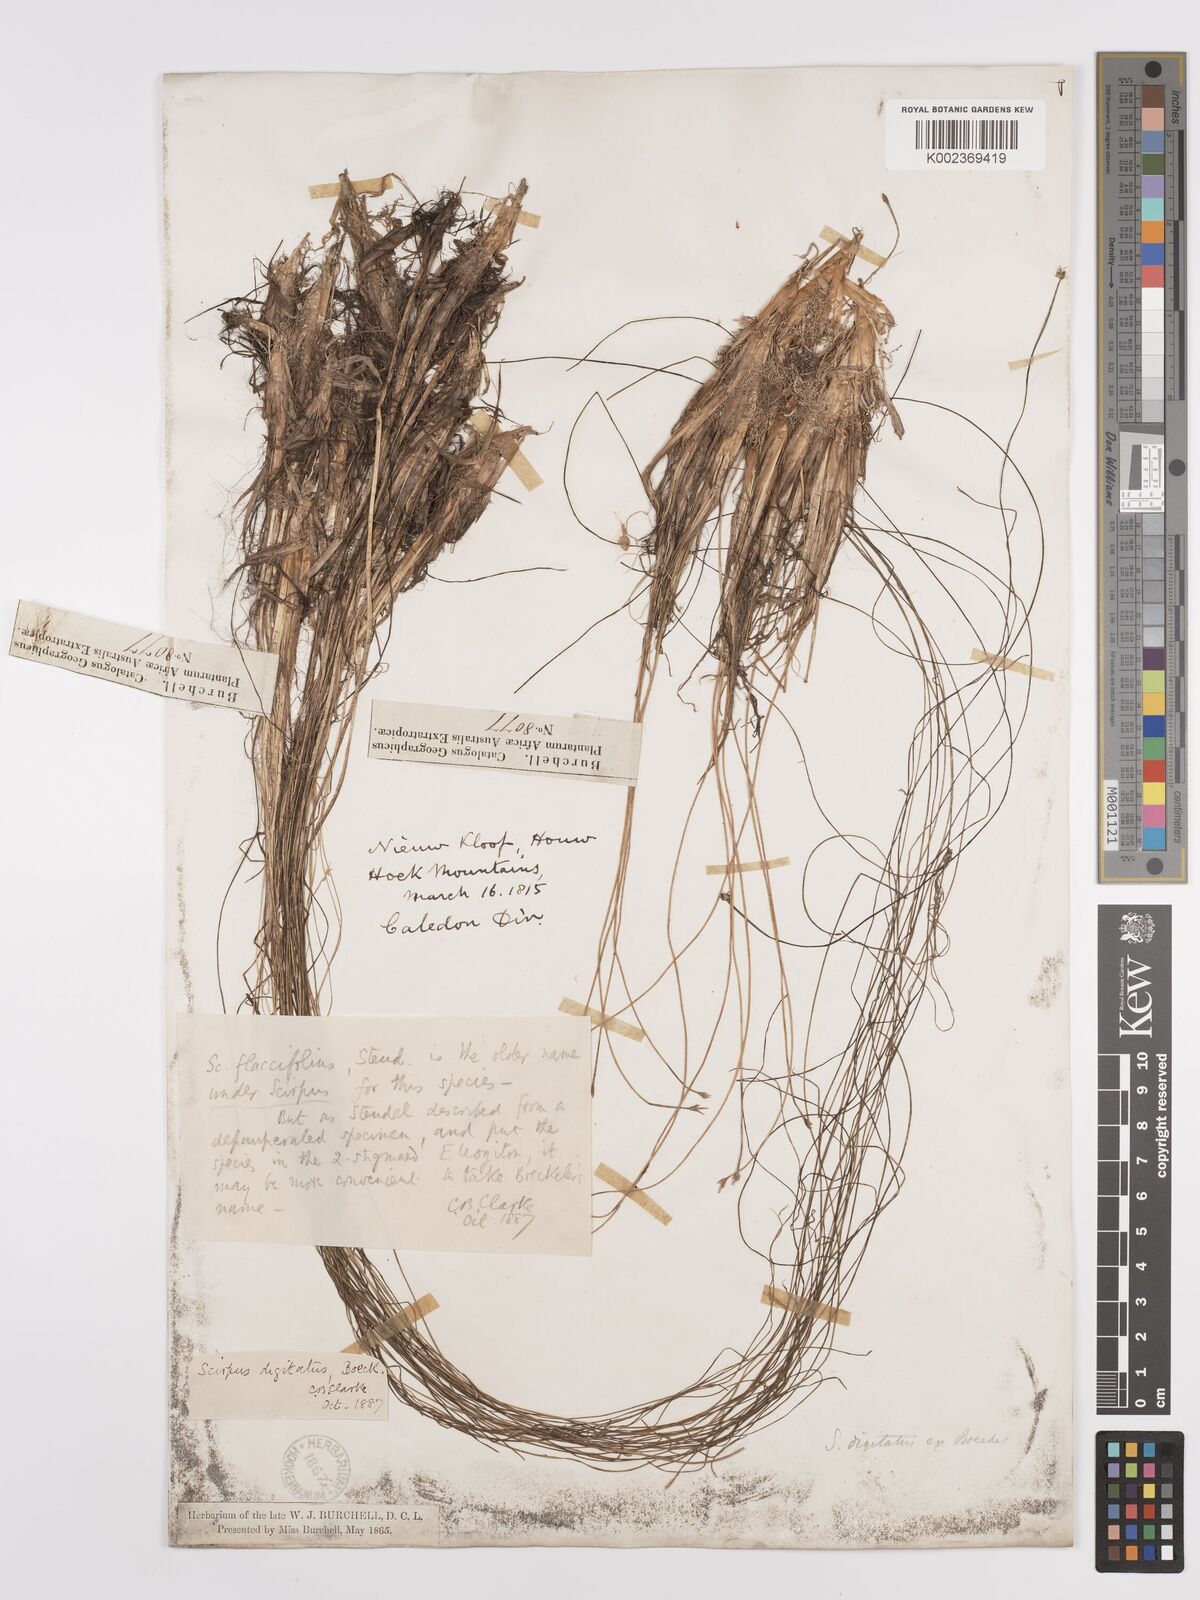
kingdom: Plantae
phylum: Tracheophyta
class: Liliopsida
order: Poales
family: Cyperaceae
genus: Isolepis
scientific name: Isolepis digitata
